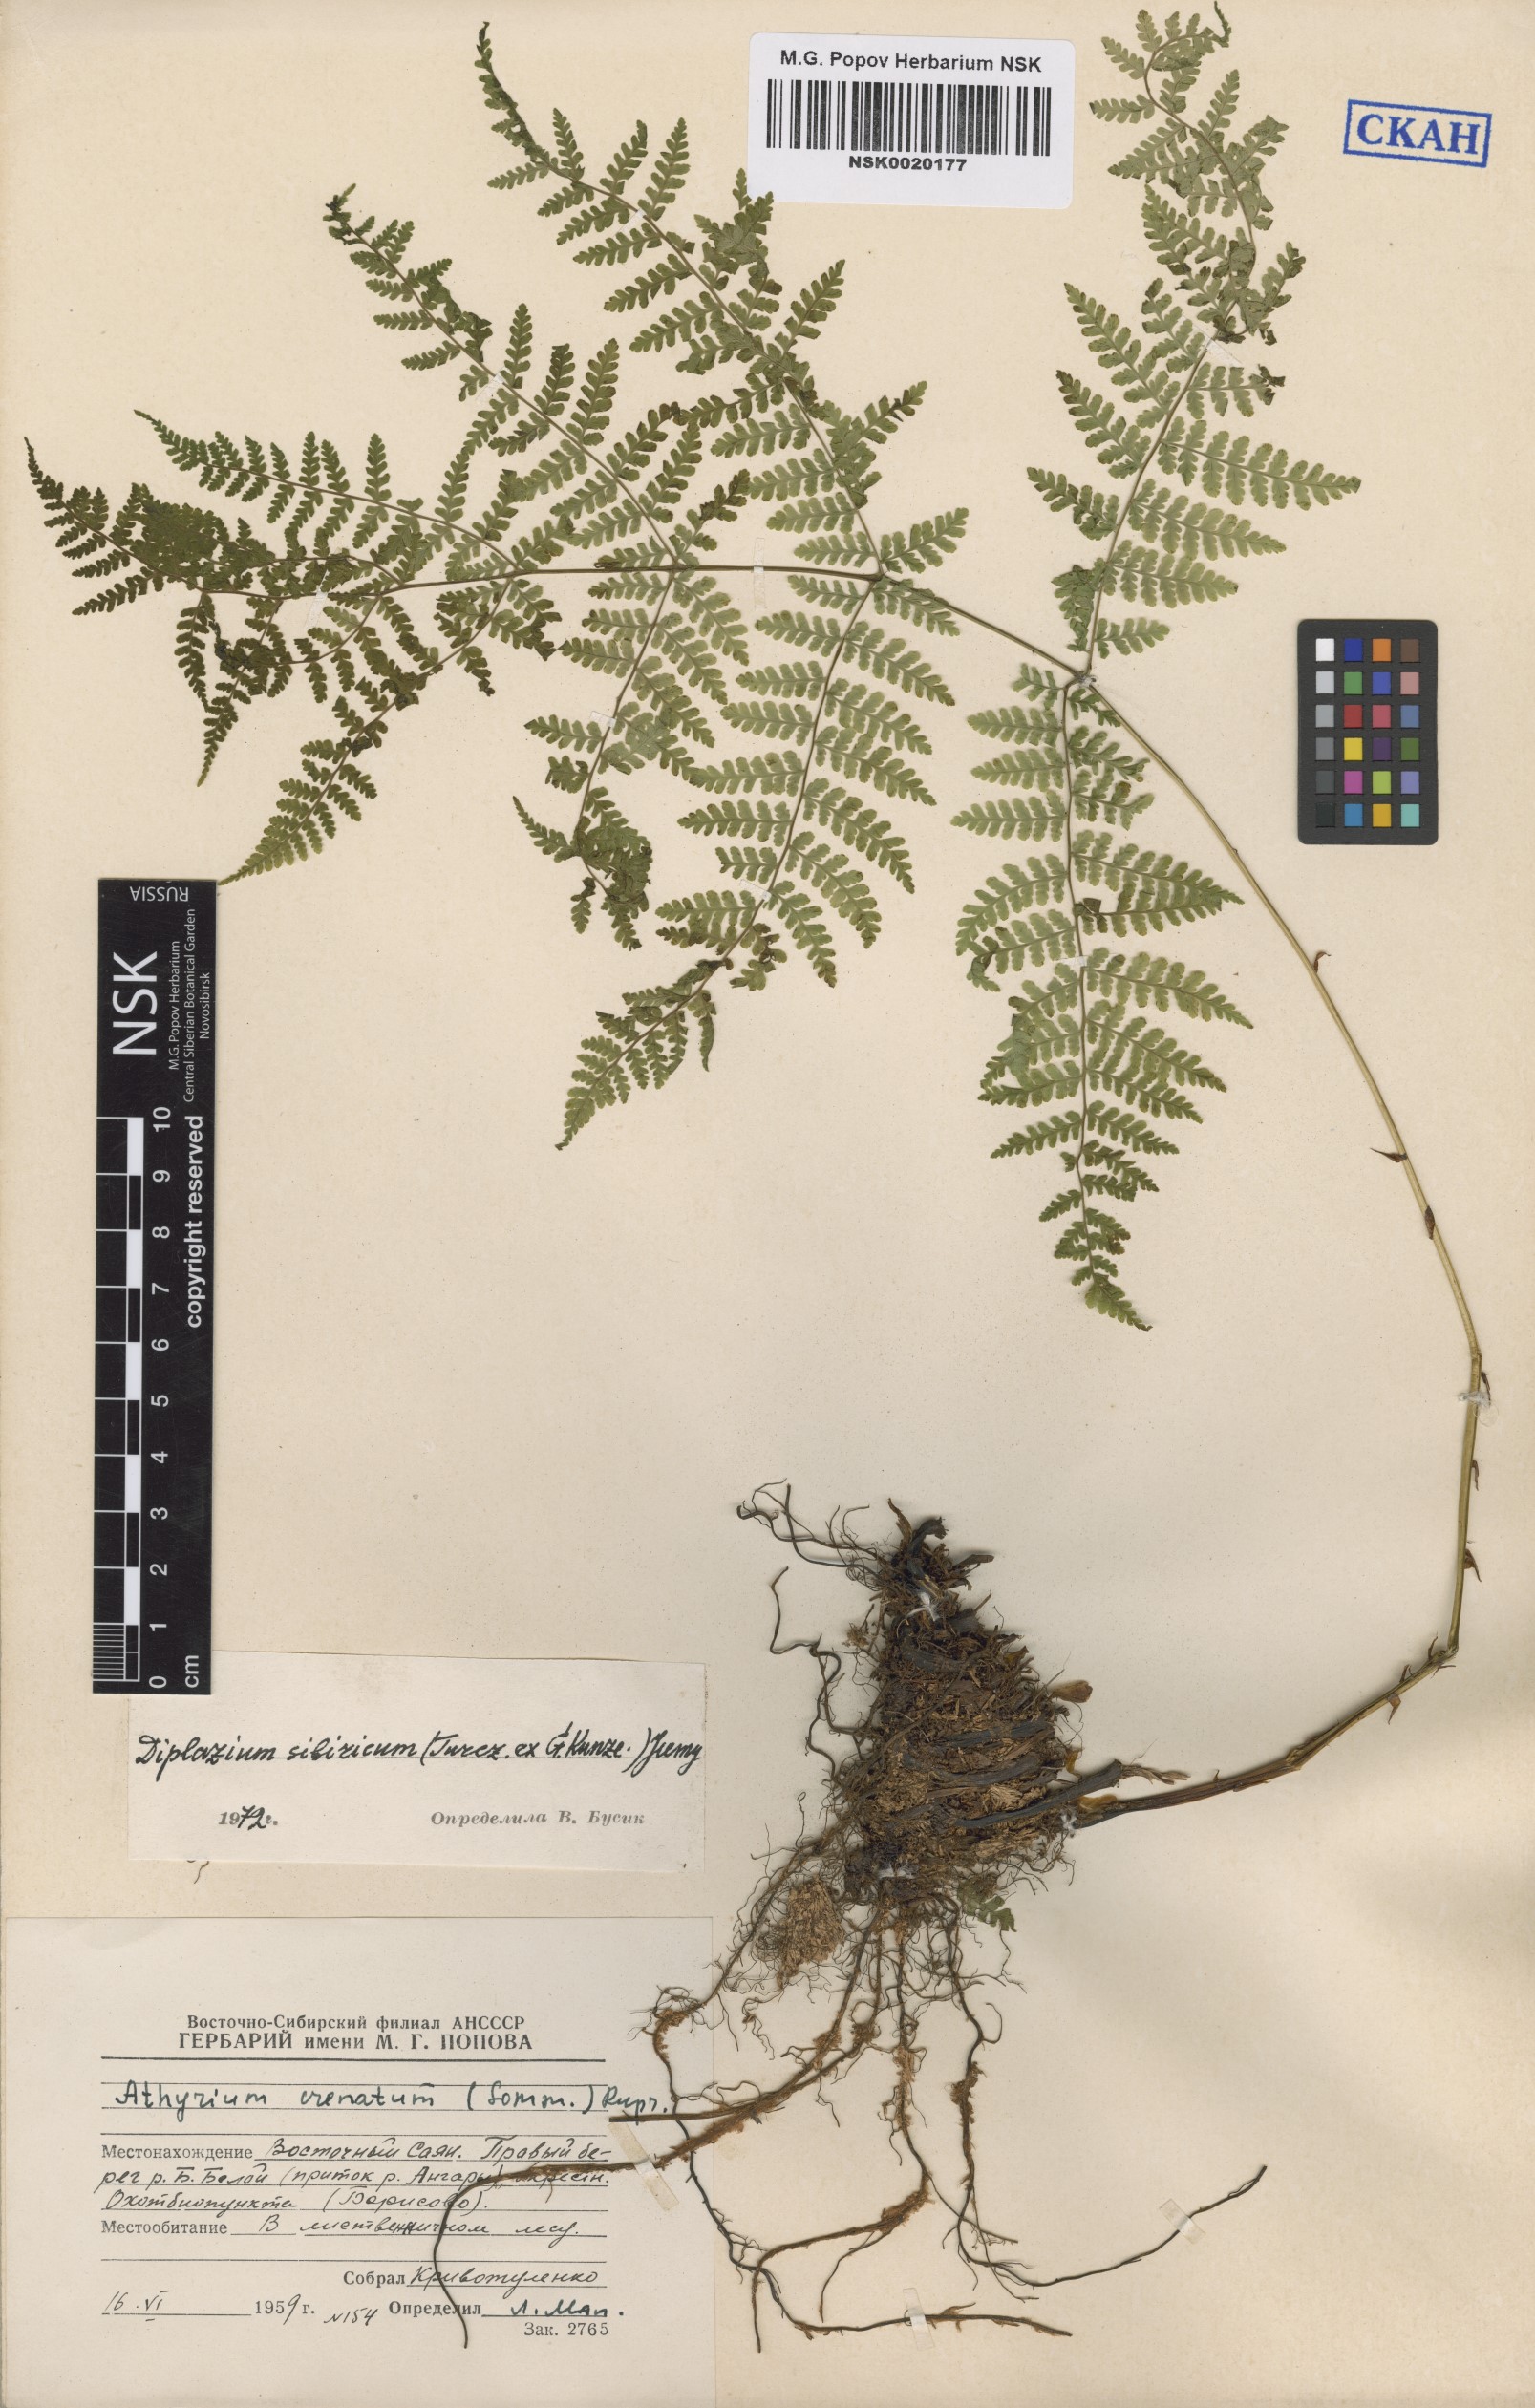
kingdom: Plantae
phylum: Tracheophyta
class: Polypodiopsida
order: Polypodiales
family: Athyriaceae
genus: Diplazium
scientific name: Diplazium sibiricum
